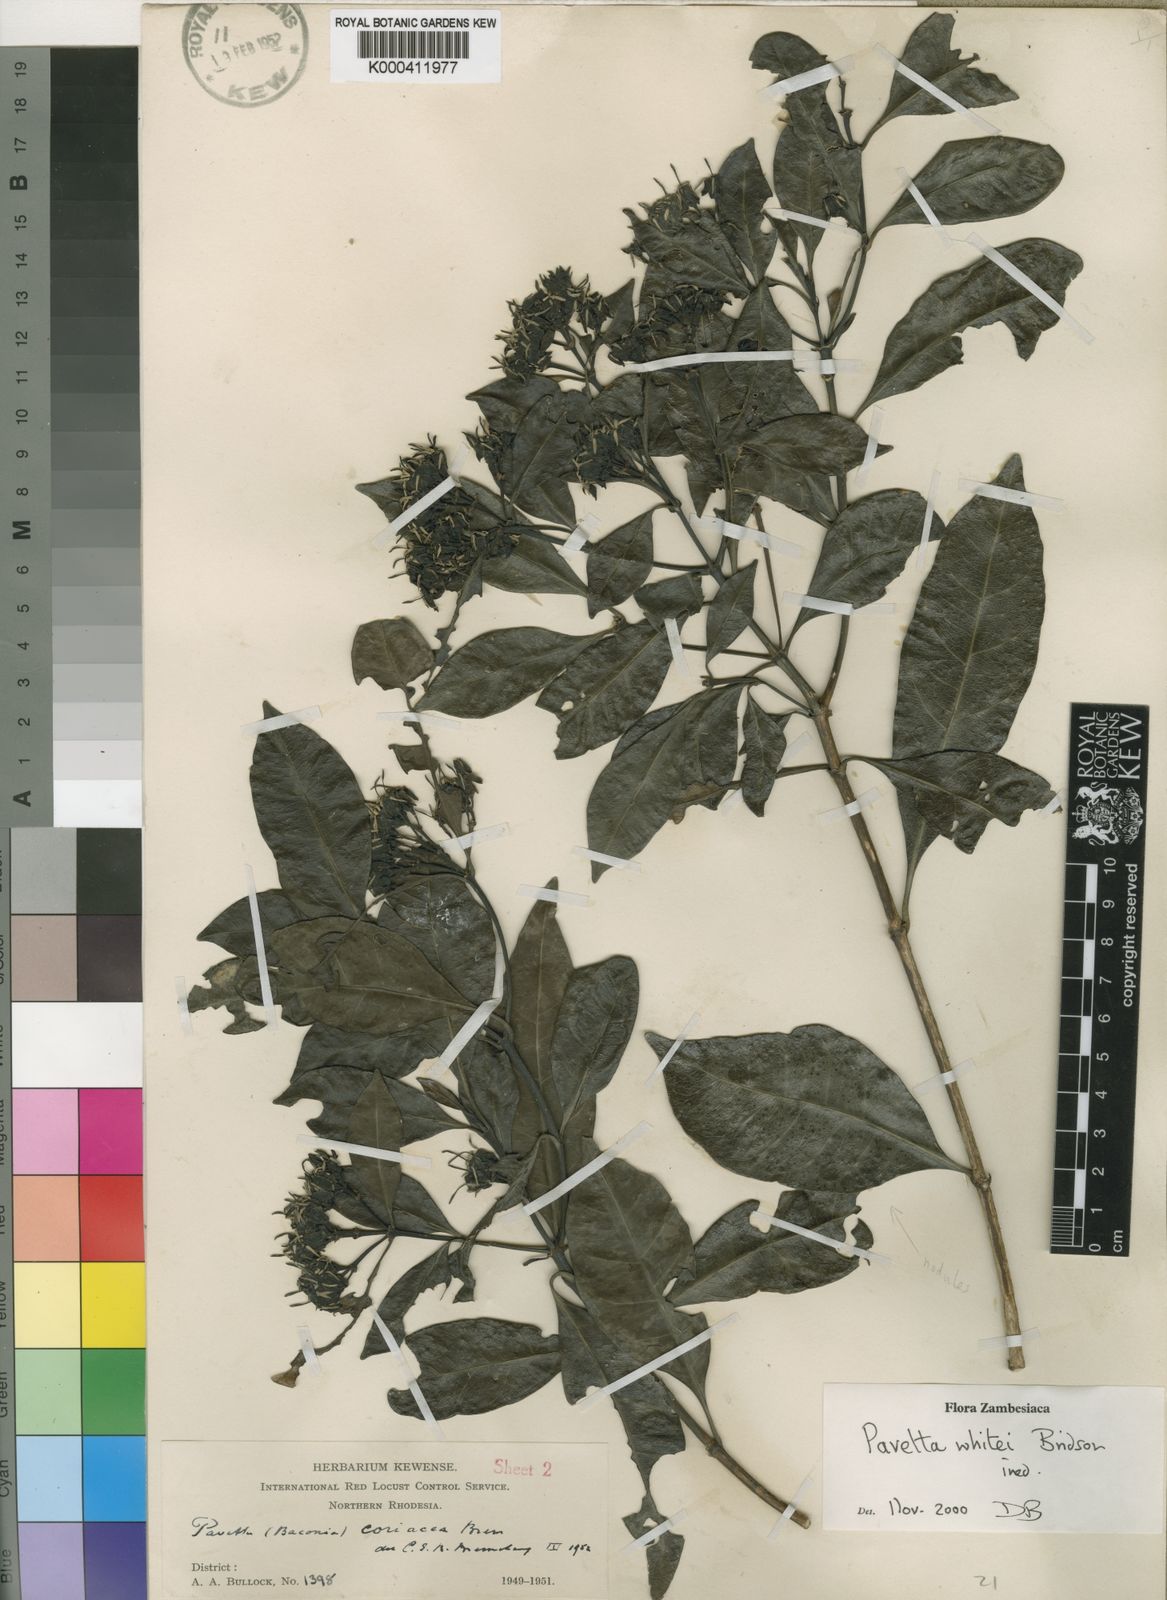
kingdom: Plantae
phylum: Tracheophyta
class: Magnoliopsida
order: Gentianales
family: Rubiaceae
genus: Pavetta
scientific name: Pavetta
